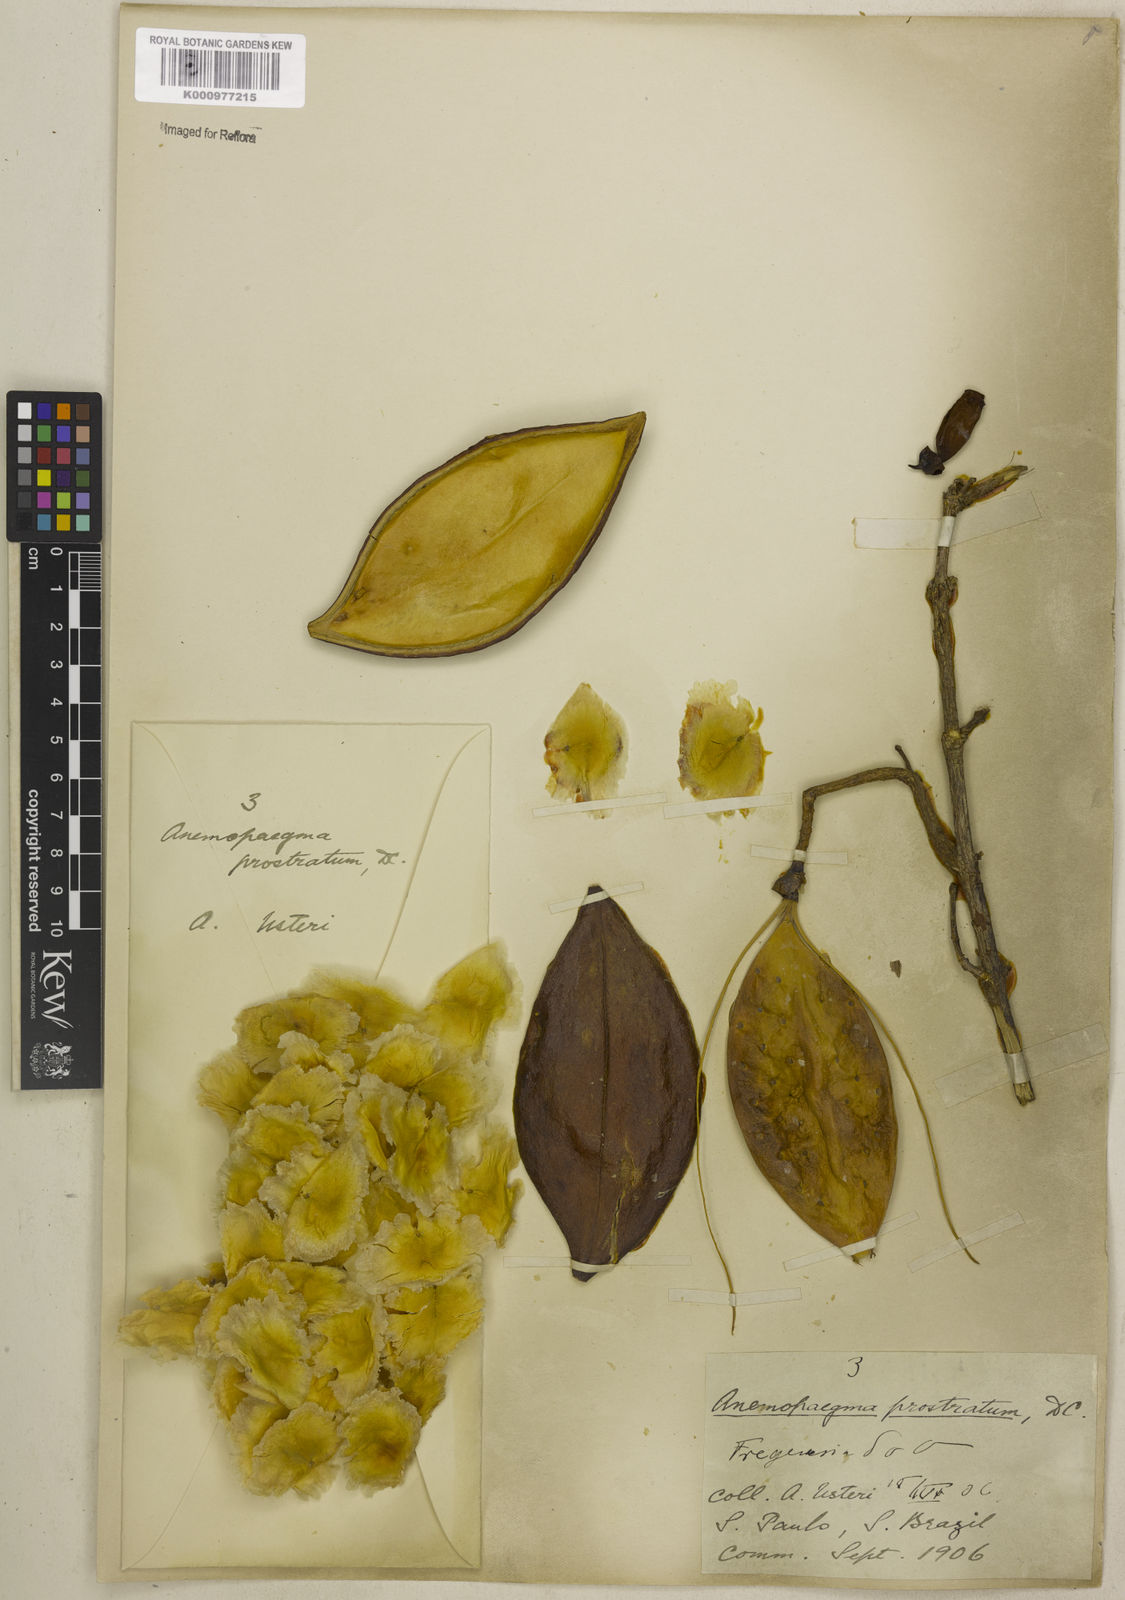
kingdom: Plantae
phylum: Tracheophyta
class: Magnoliopsida
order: Lamiales
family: Bignoniaceae
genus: Anemopaegma
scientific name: Anemopaegma prostratum
